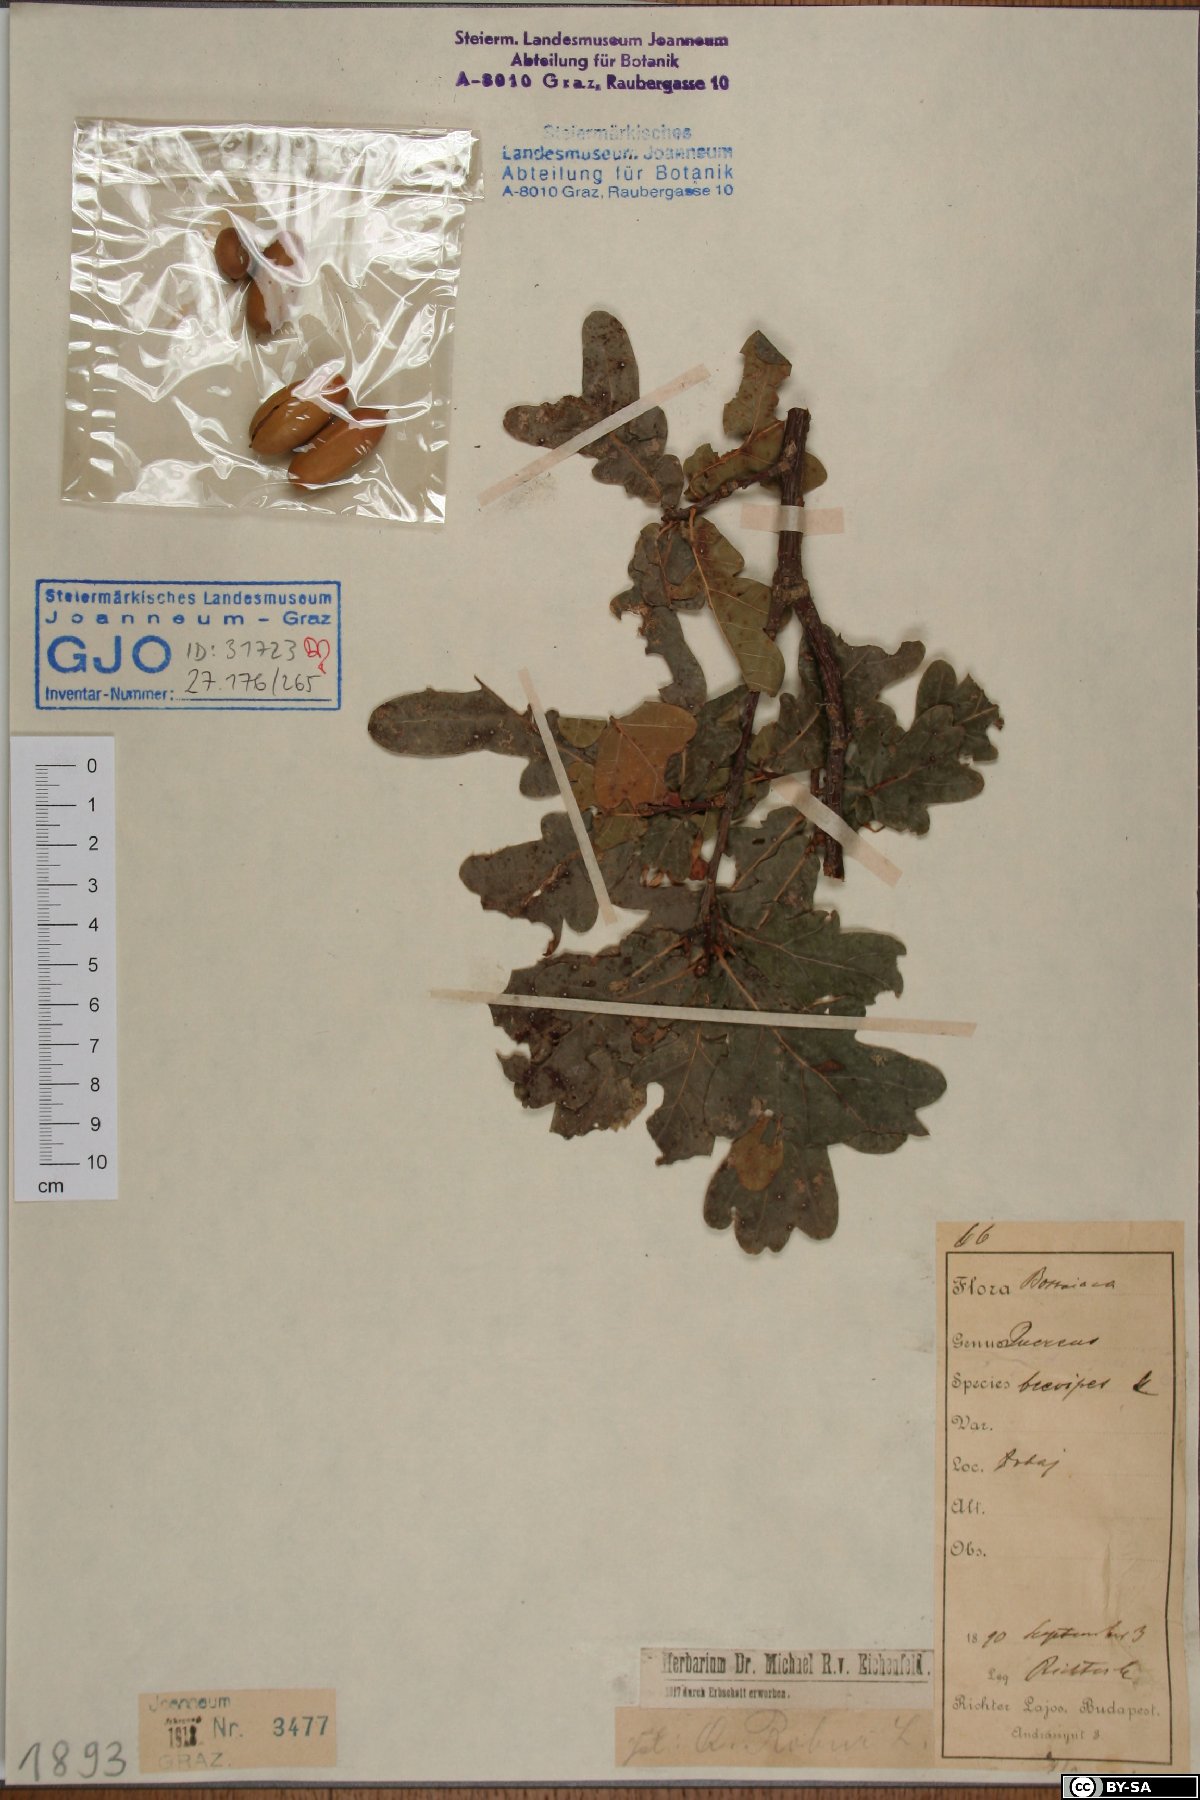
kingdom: Plantae
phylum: Tracheophyta
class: Magnoliopsida
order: Fagales
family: Fagaceae
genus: Quercus
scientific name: Quercus robur
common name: Pedunculate oak
